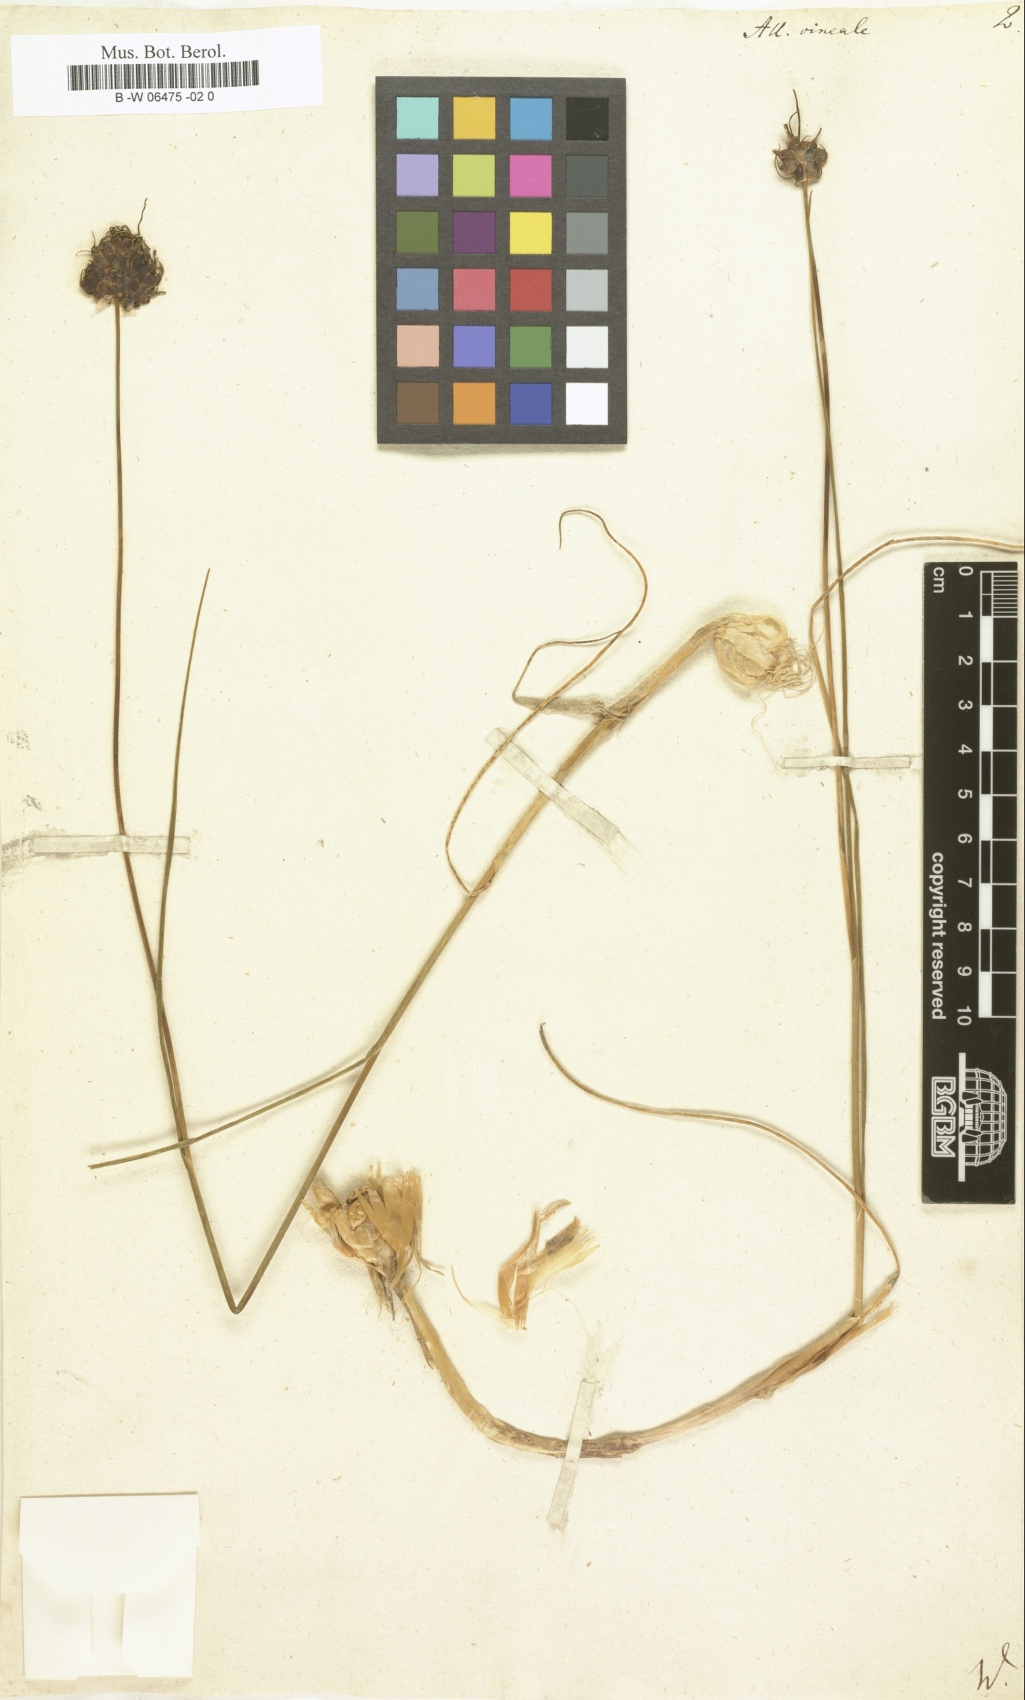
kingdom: Plantae
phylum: Tracheophyta
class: Liliopsida
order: Asparagales
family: Amaryllidaceae
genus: Allium
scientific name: Allium vineale
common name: Crow garlic
